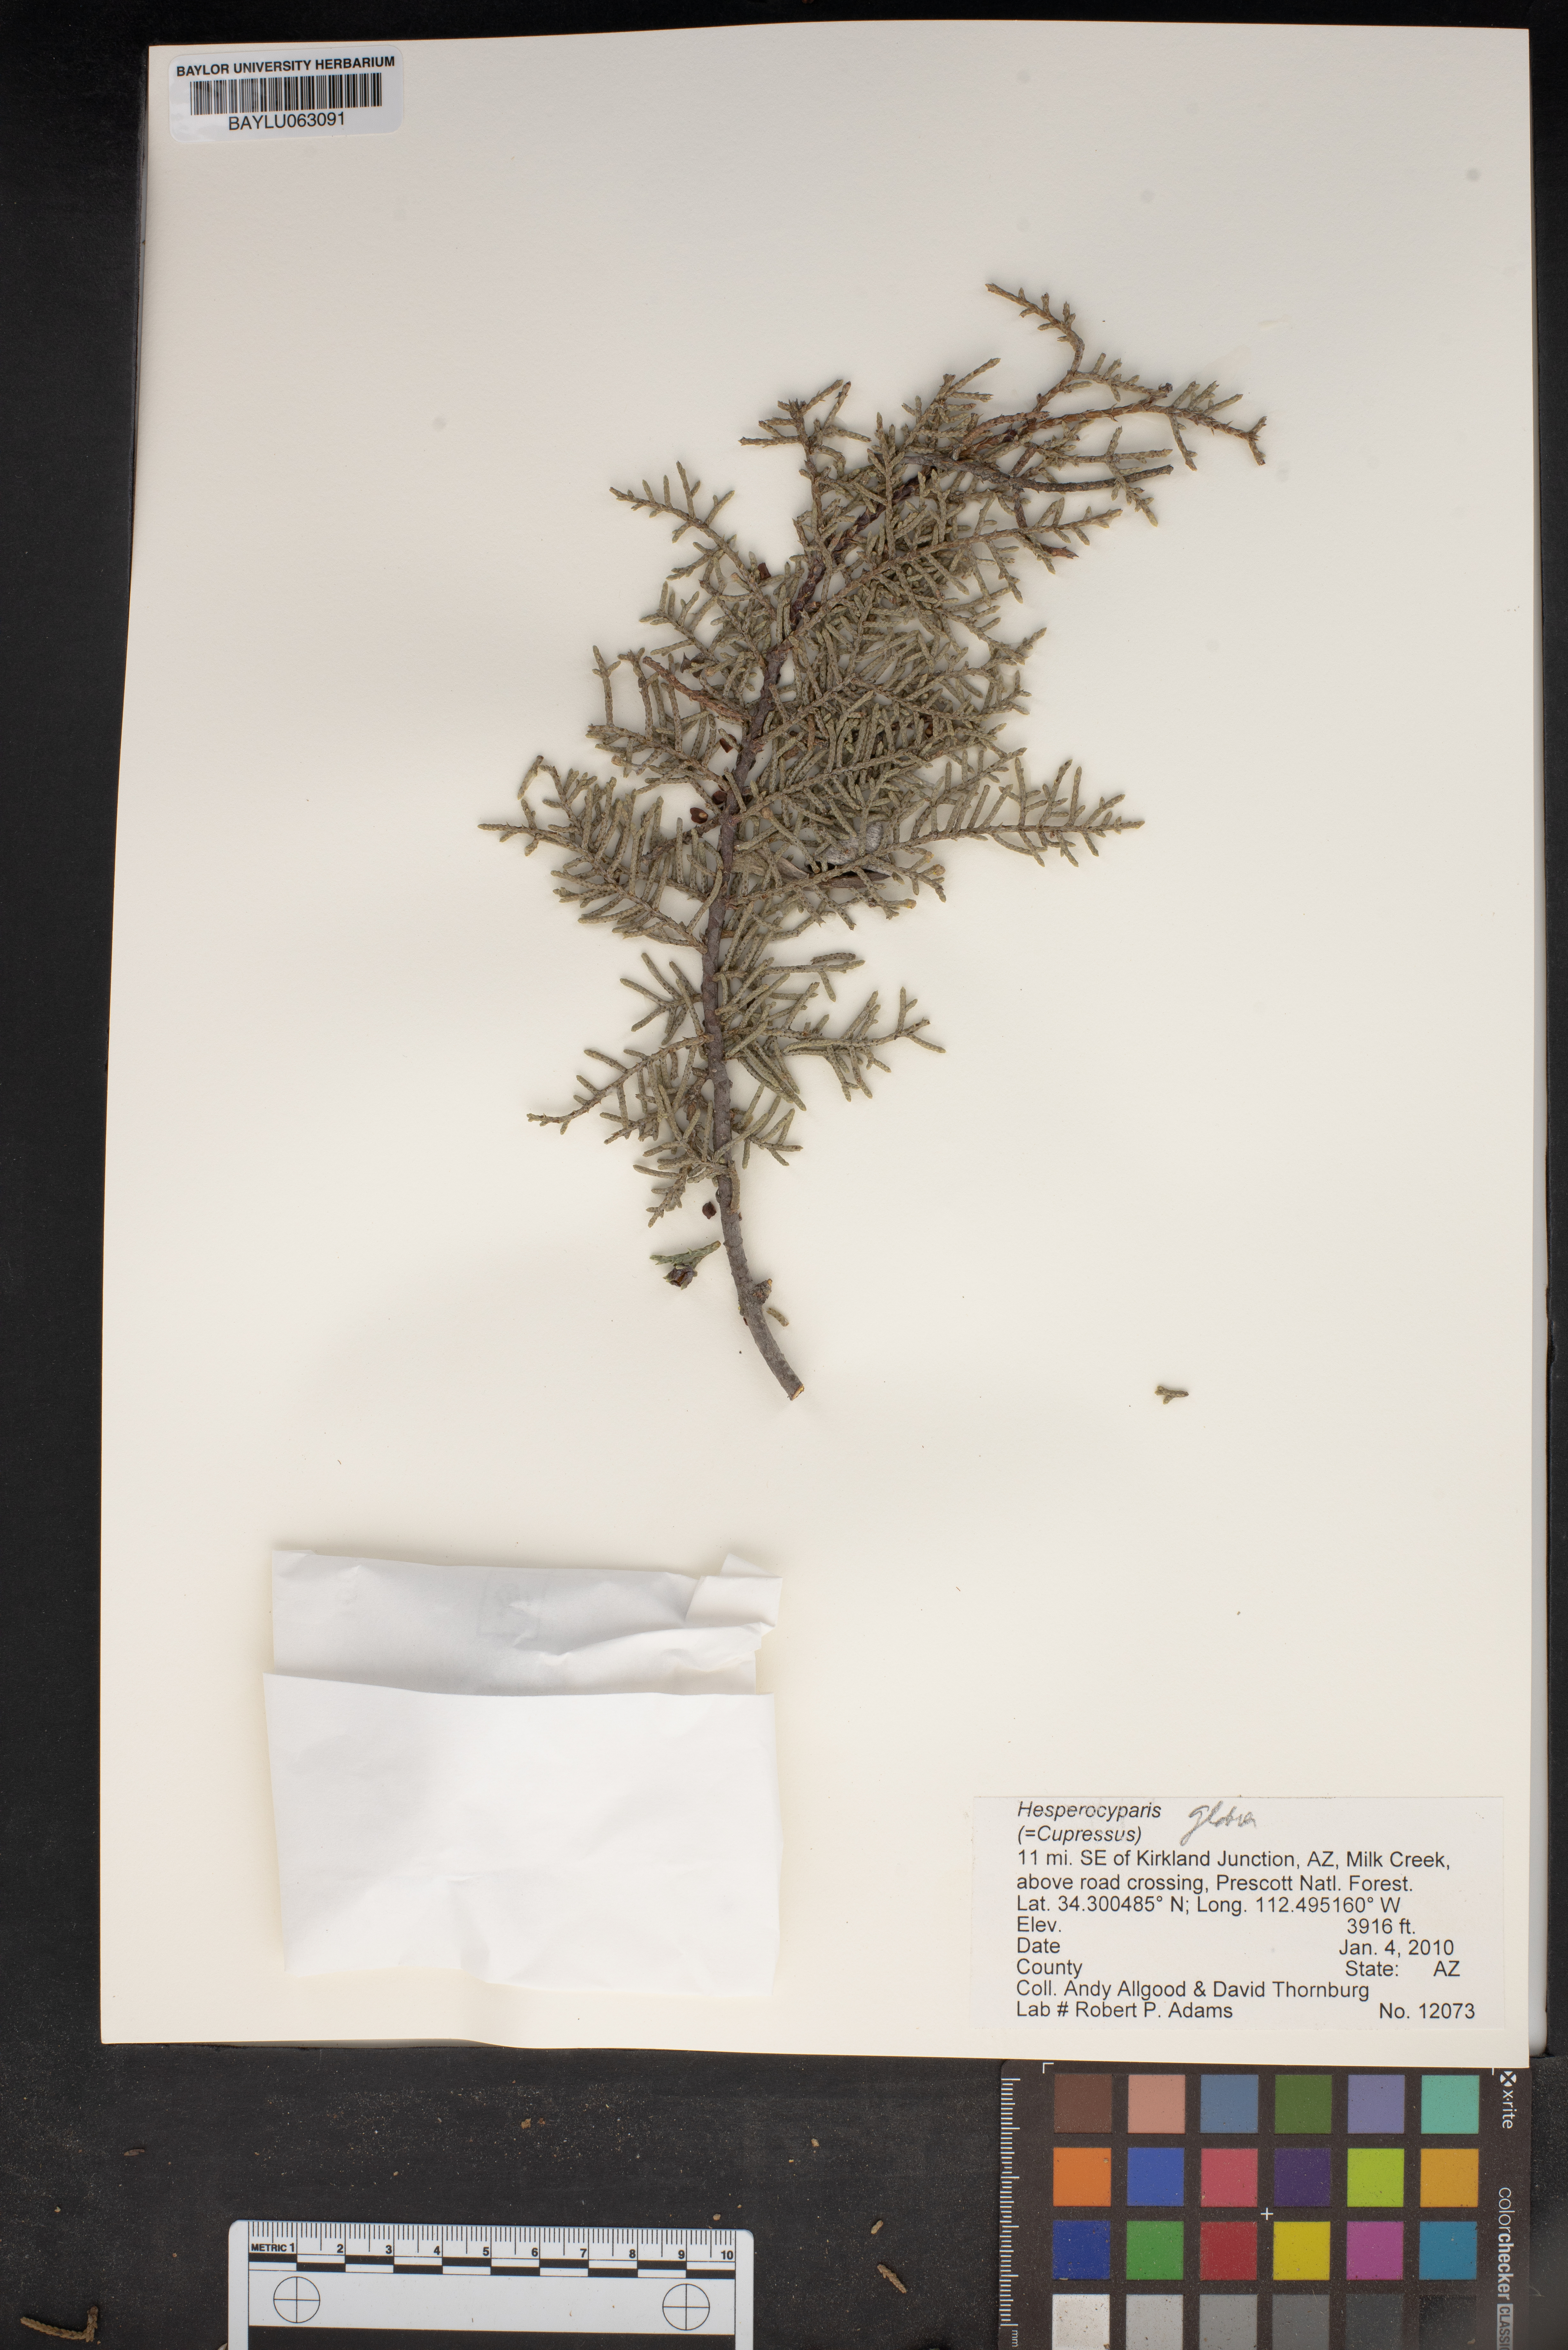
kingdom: Plantae
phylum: Tracheophyta
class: Pinopsida
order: Pinales
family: Cupressaceae
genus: Cupressus
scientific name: Cupressus arizonica
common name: Arizona cypress
